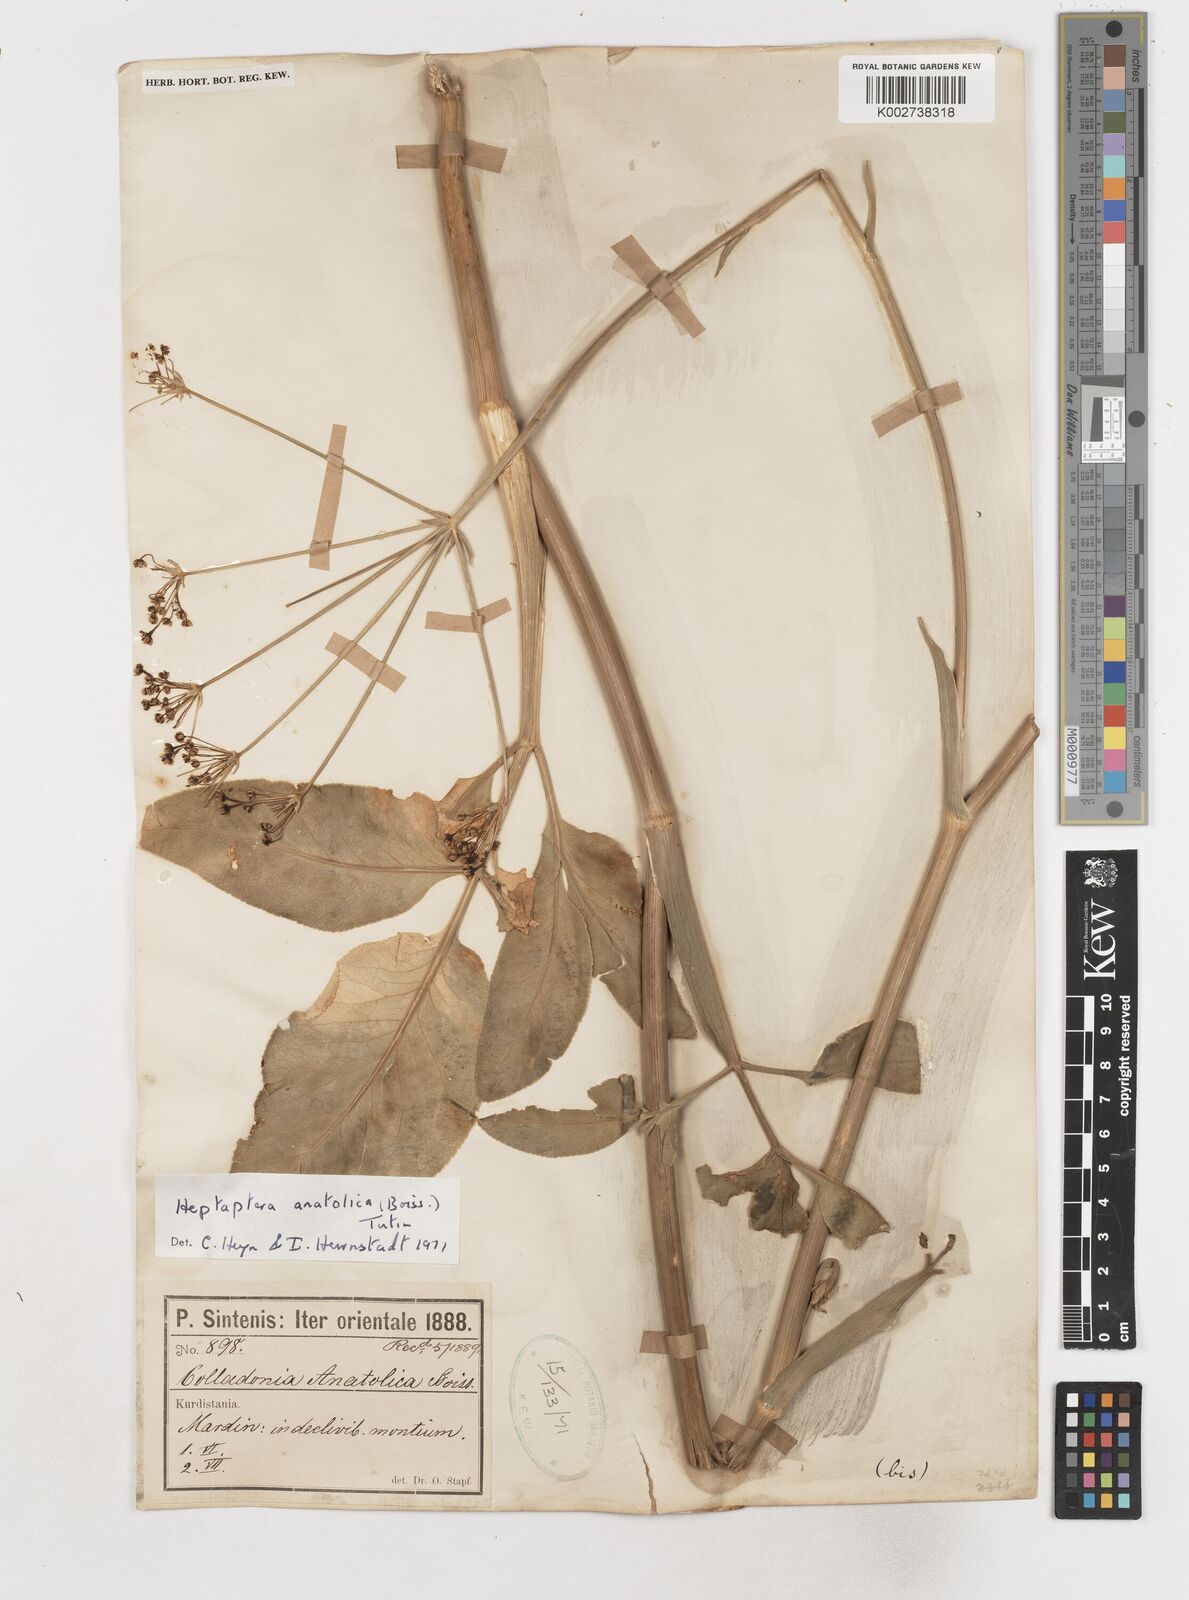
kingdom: Plantae
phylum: Tracheophyta
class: Magnoliopsida
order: Apiales
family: Apiaceae
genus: Heptaptera
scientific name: Heptaptera anatolica
